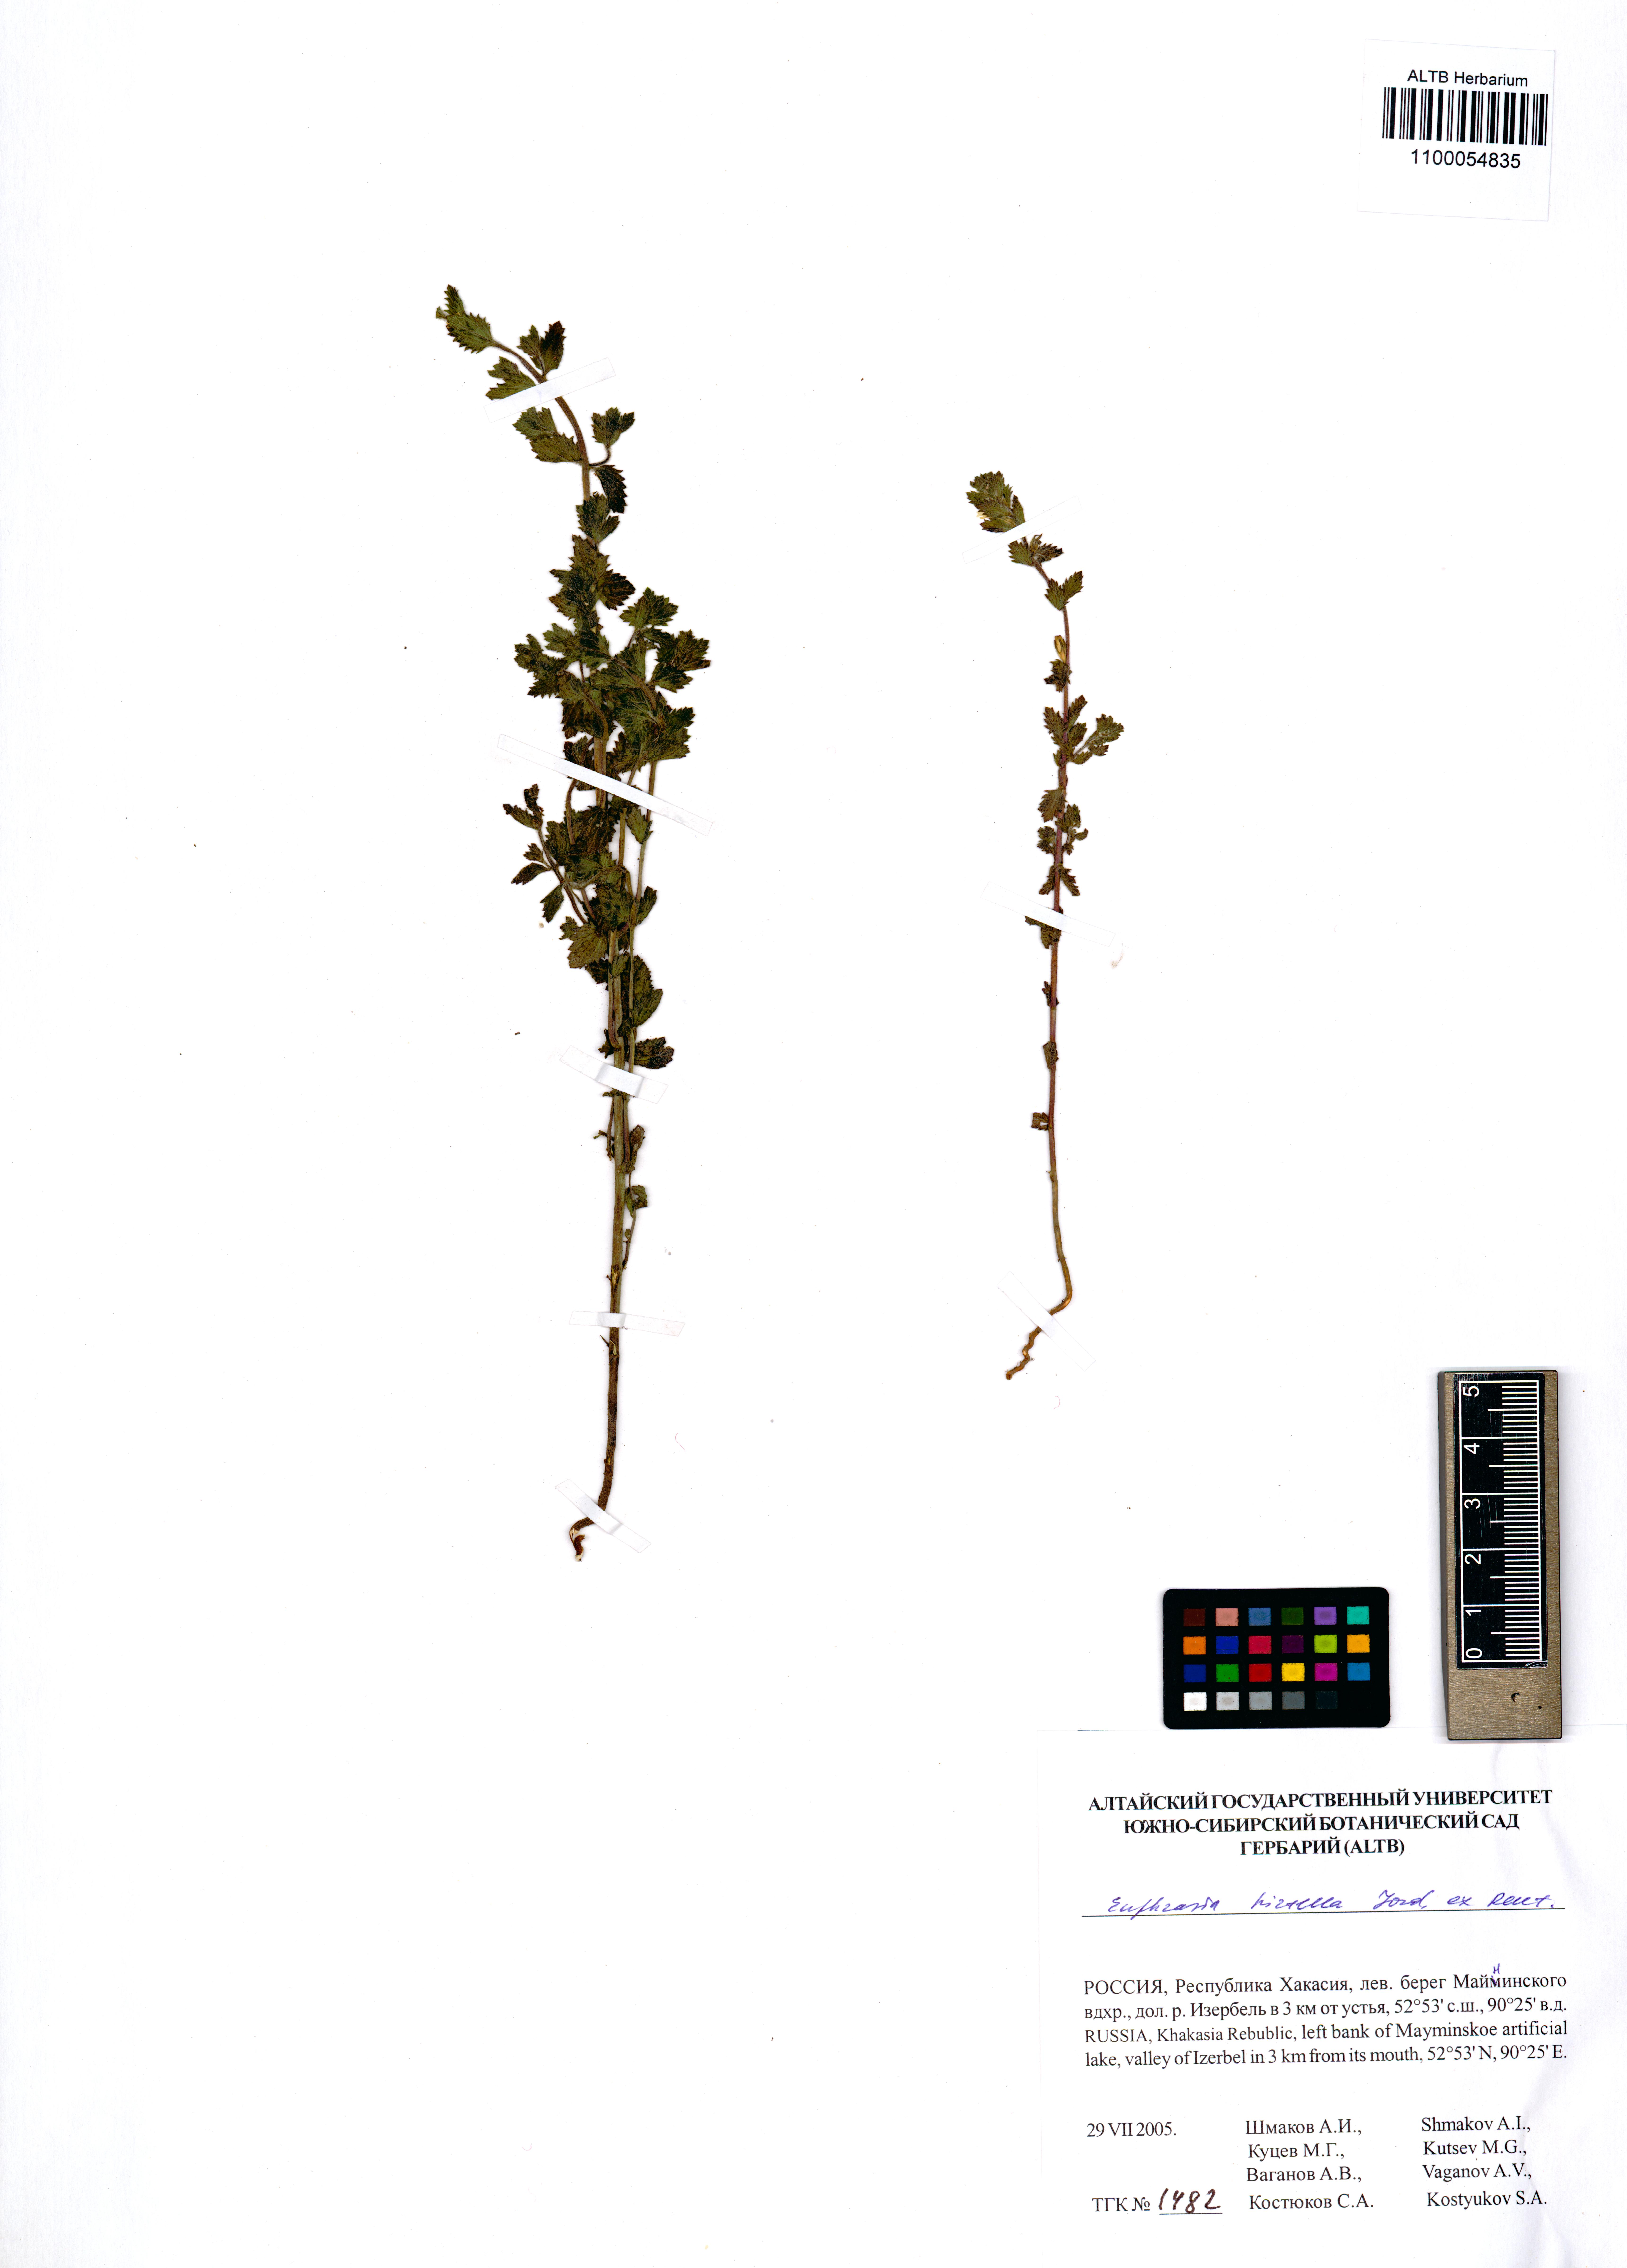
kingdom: Plantae
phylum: Tracheophyta
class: Magnoliopsida
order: Lamiales
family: Orobanchaceae
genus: Euphrasia
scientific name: Euphrasia hirtella
